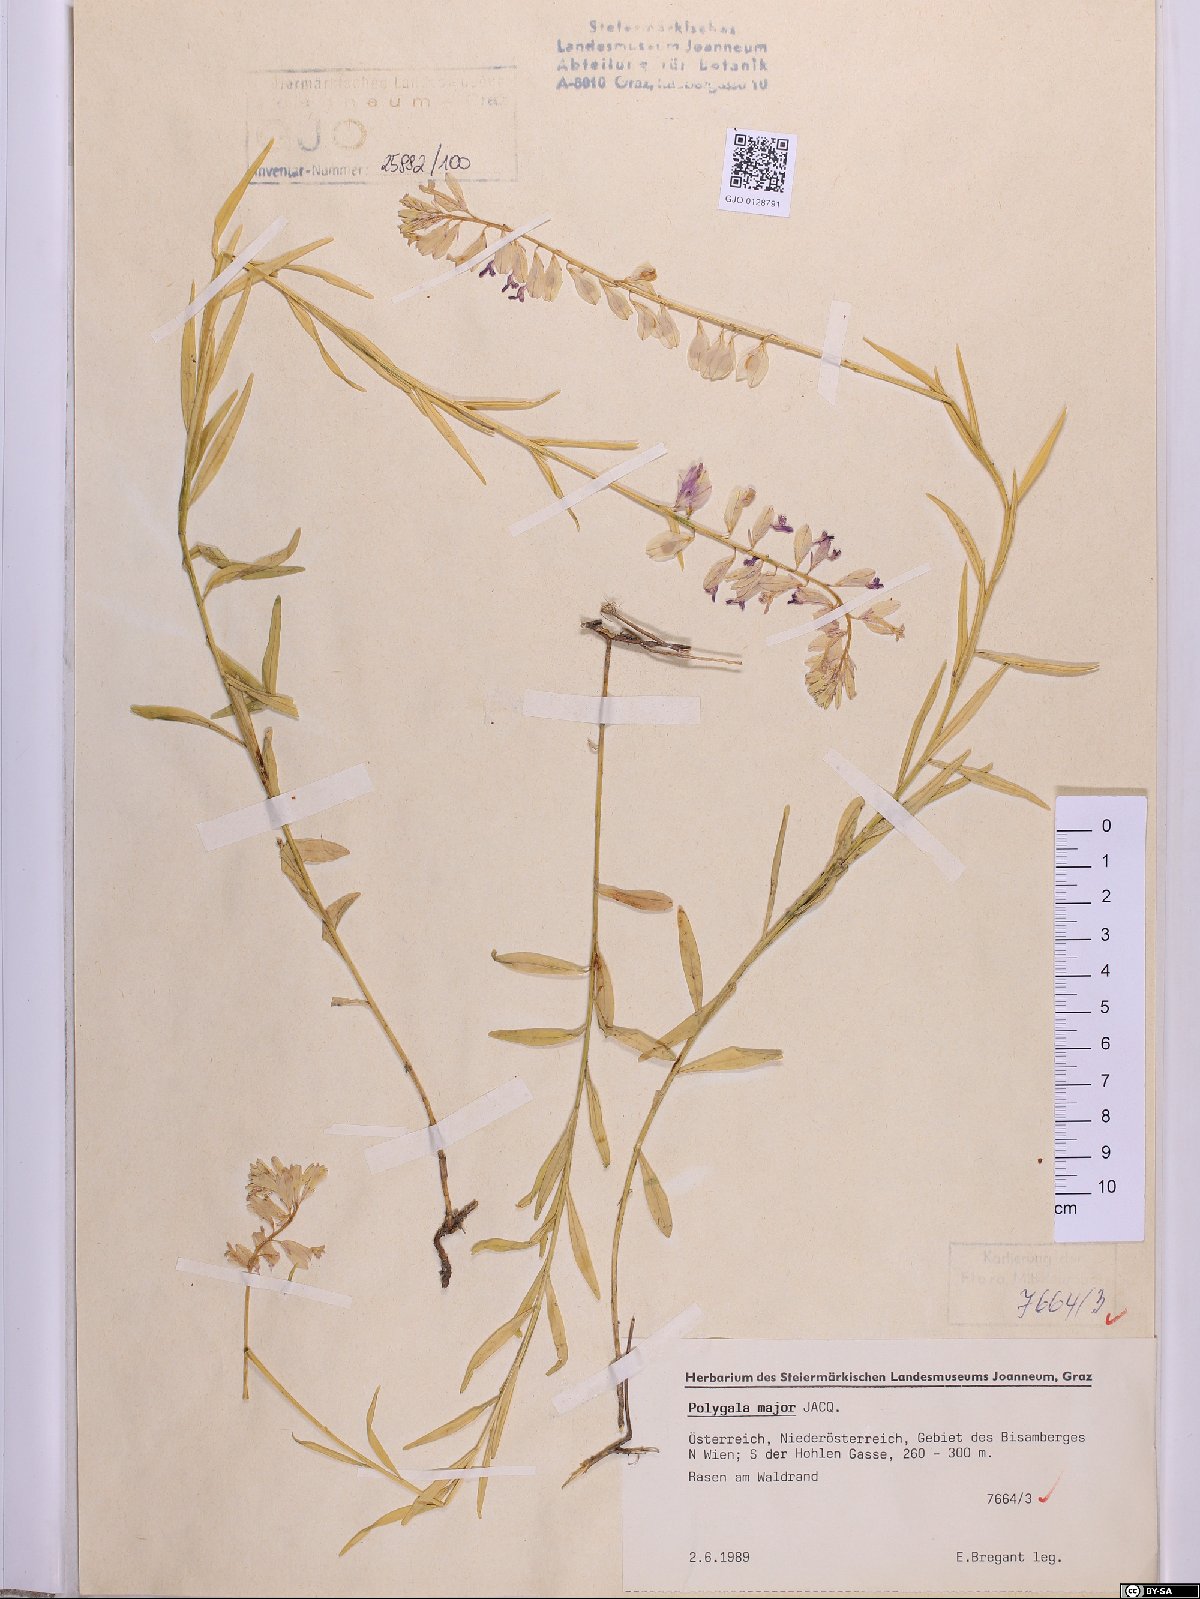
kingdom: Plantae
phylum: Tracheophyta
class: Magnoliopsida
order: Fabales
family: Polygalaceae
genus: Polygala
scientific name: Polygala major
